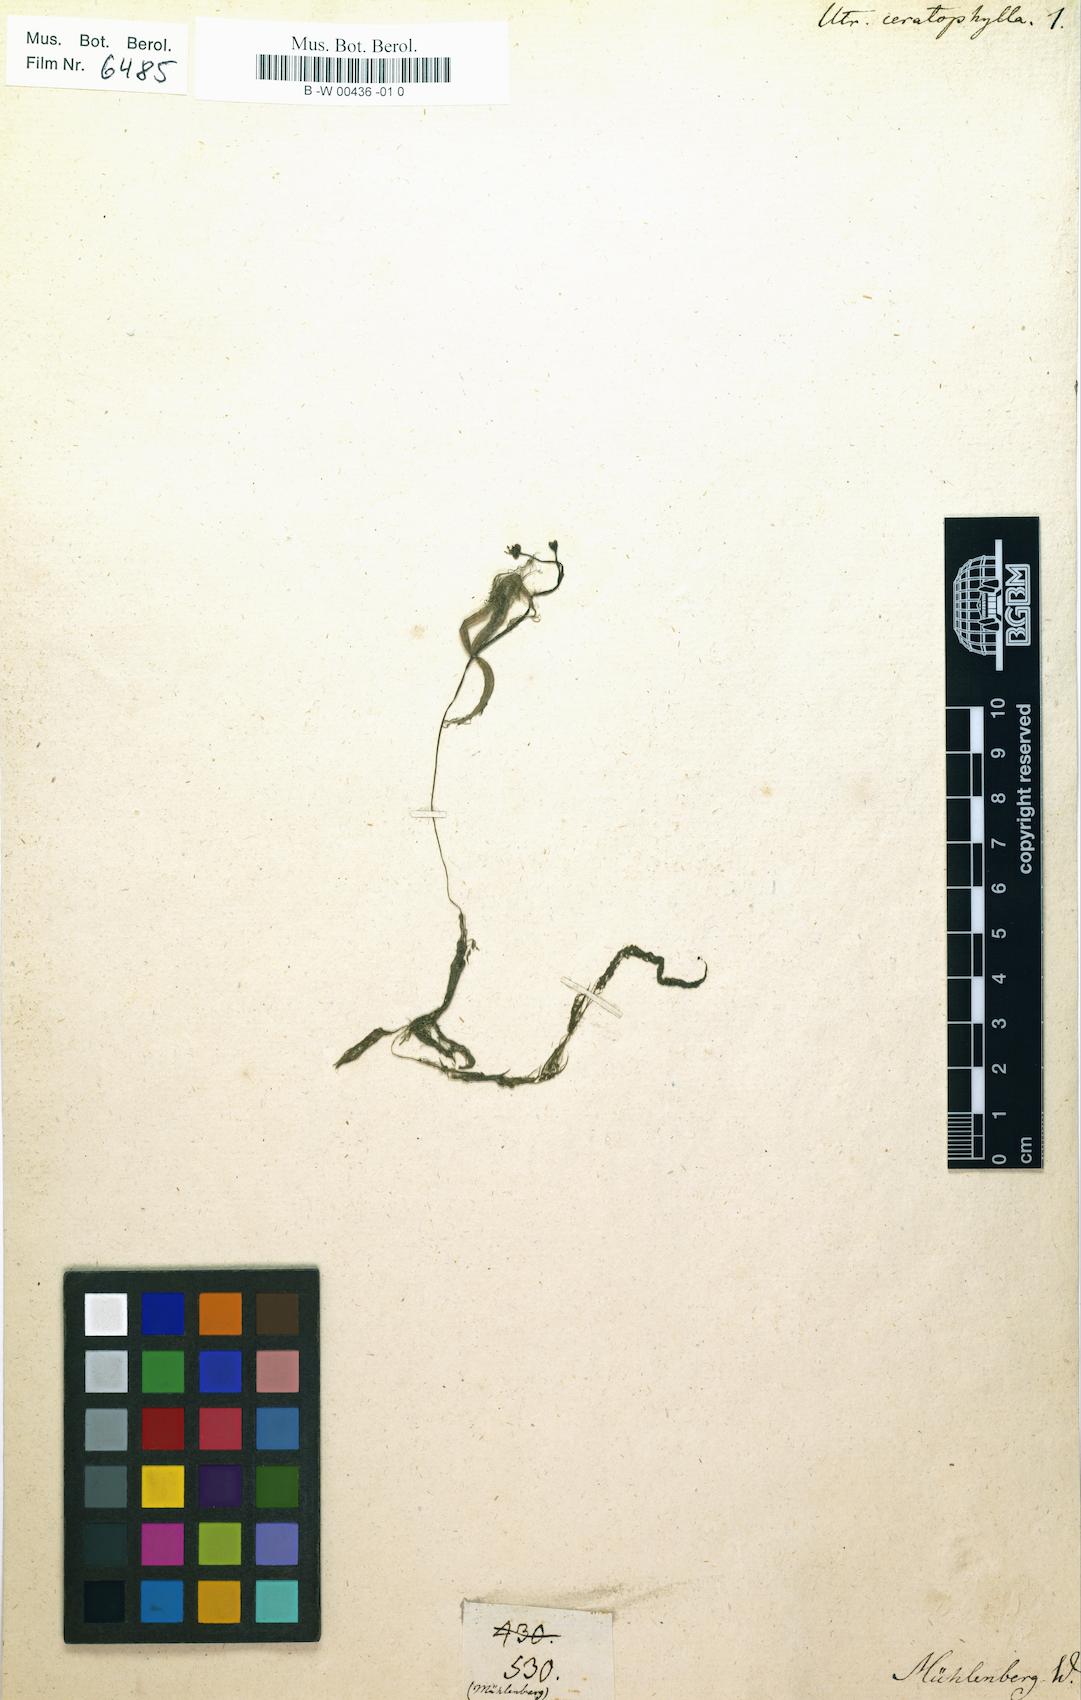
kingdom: Plantae
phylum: Tracheophyta
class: Magnoliopsida
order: Lamiales
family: Lentibulariaceae
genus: Utricularia
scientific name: Utricularia inflata
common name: Floating bladderwort
